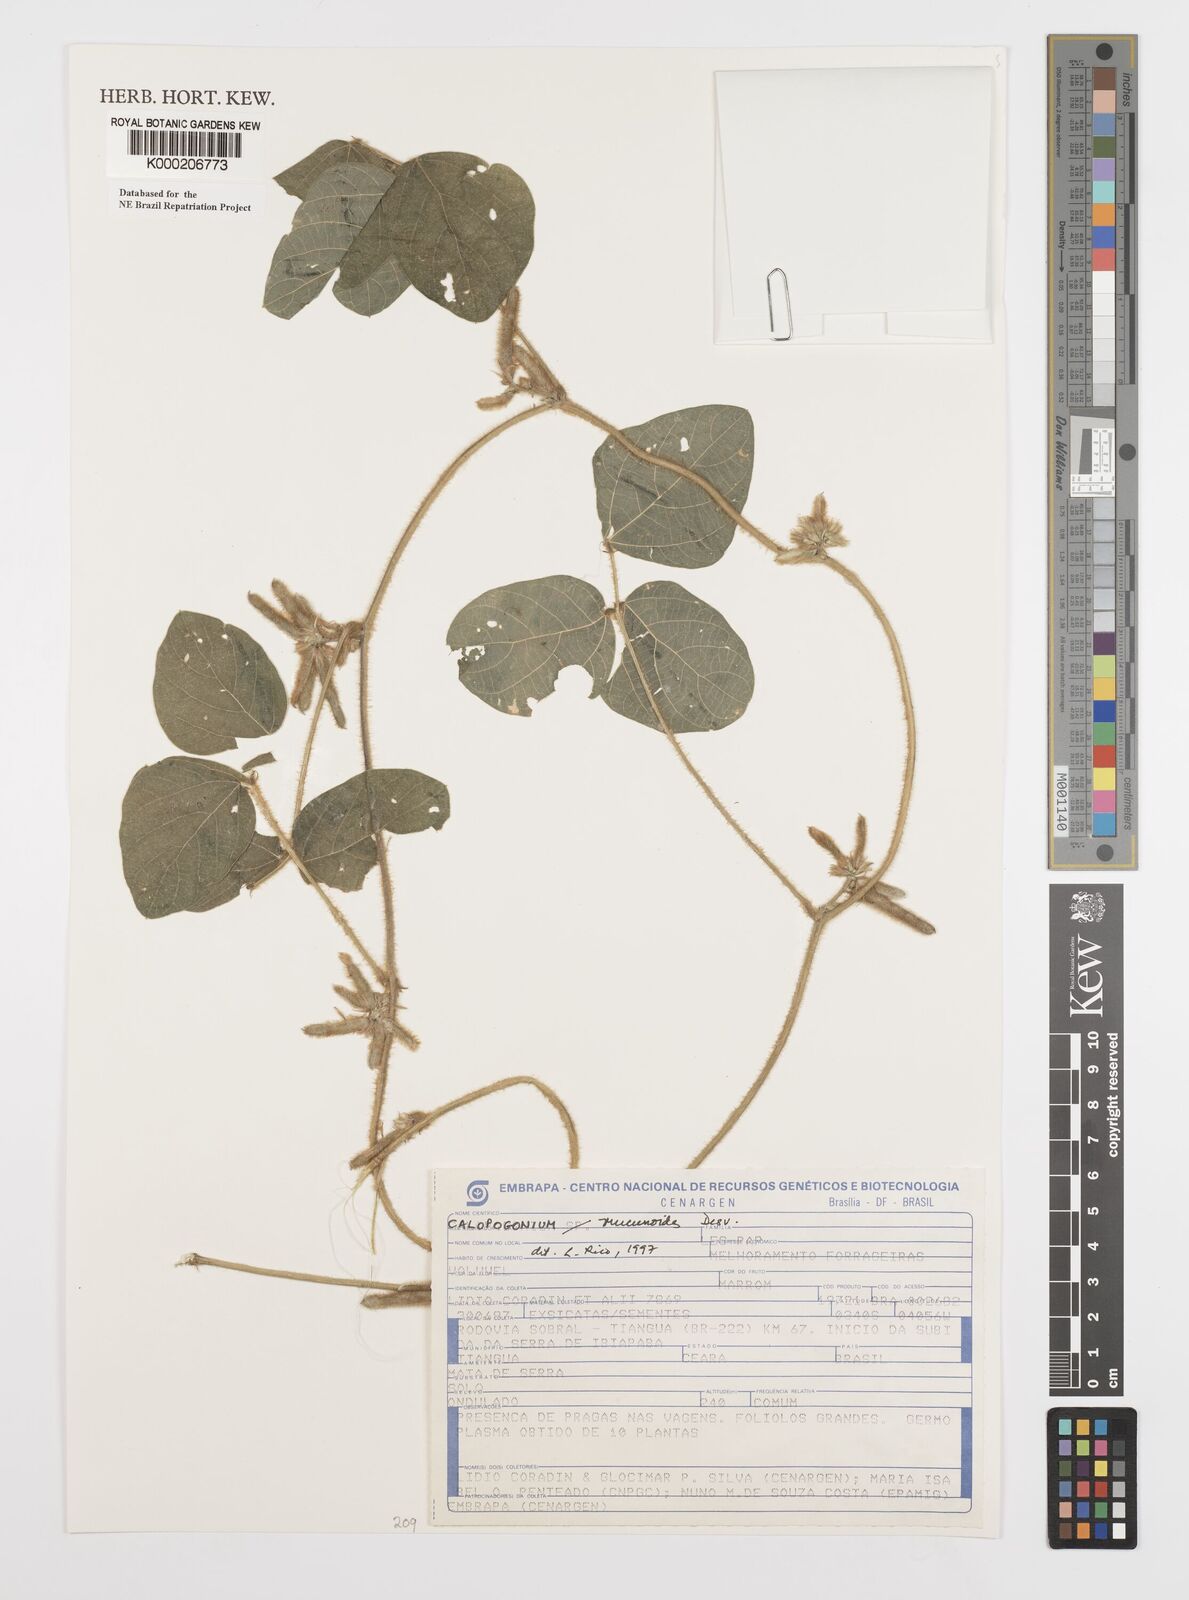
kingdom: Plantae
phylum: Tracheophyta
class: Magnoliopsida
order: Fabales
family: Fabaceae
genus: Calopogonium
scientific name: Calopogonium mucunoides
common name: Calopo
